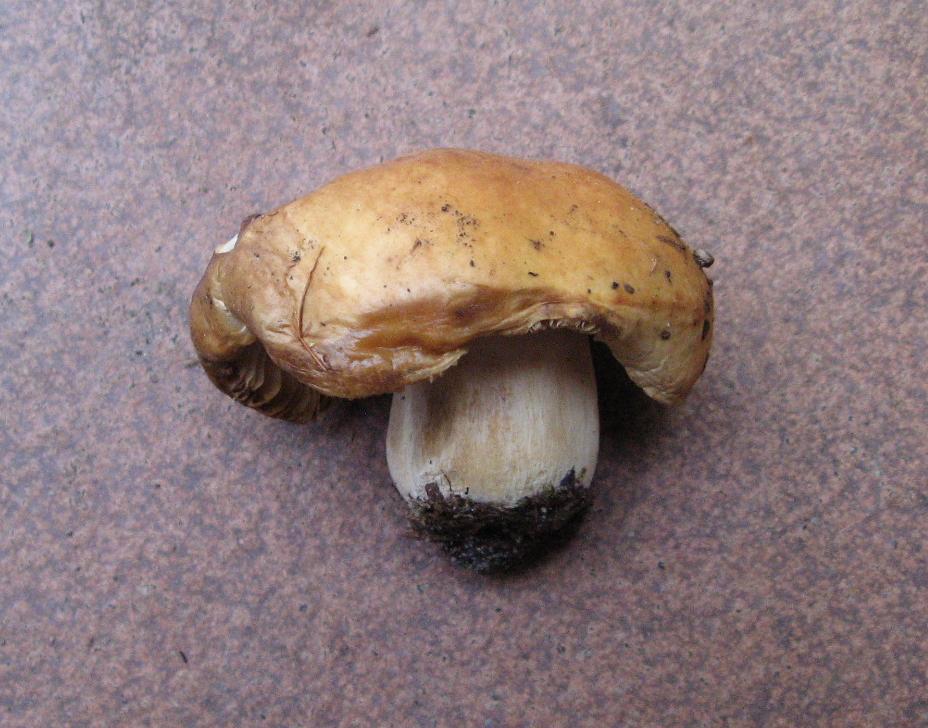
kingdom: Fungi
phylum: Basidiomycota
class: Agaricomycetes
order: Russulales
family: Russulaceae
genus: Russula
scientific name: Russula fellea
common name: galde-skørhat
